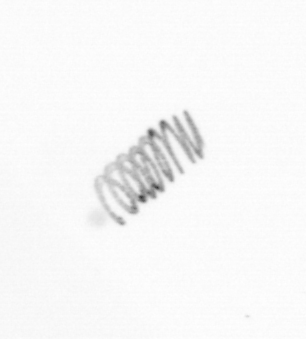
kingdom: Chromista
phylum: Ochrophyta
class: Bacillariophyceae
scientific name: Bacillariophyceae
